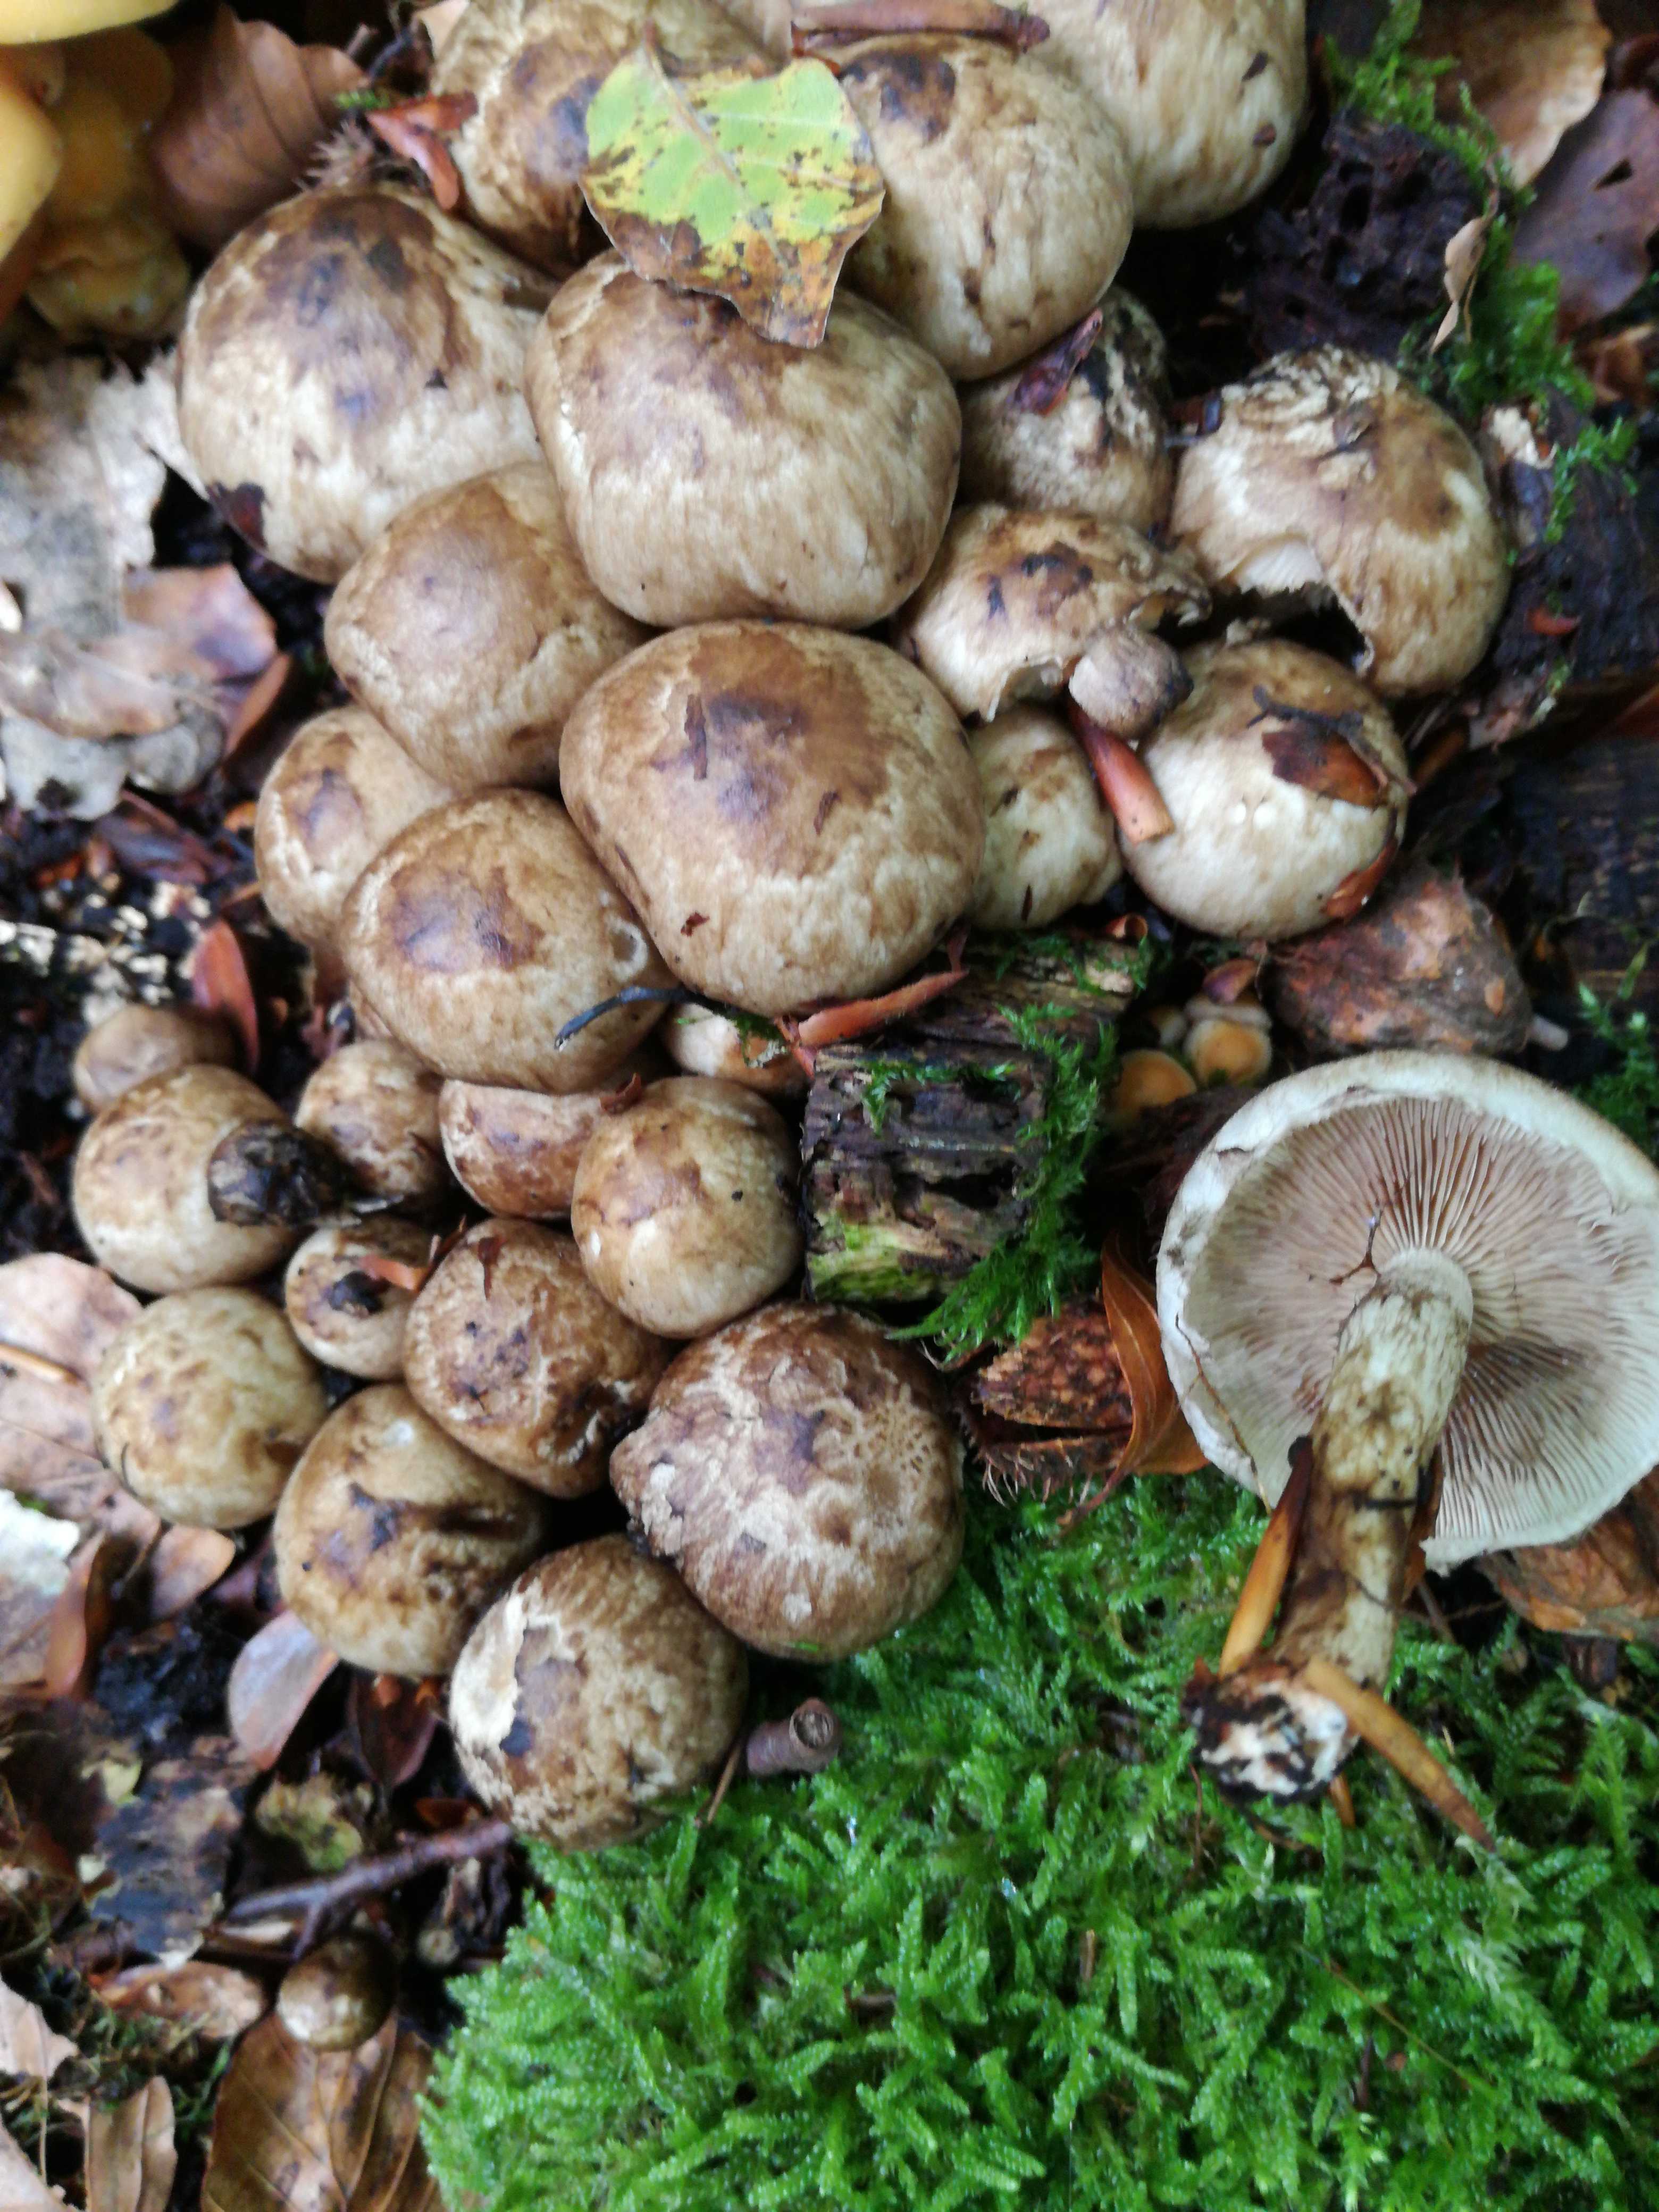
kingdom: Fungi
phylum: Basidiomycota
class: Agaricomycetes
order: Agaricales
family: Psathyrellaceae
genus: Psathyrella
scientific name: Psathyrella cotonea
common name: skællet mørkhat
